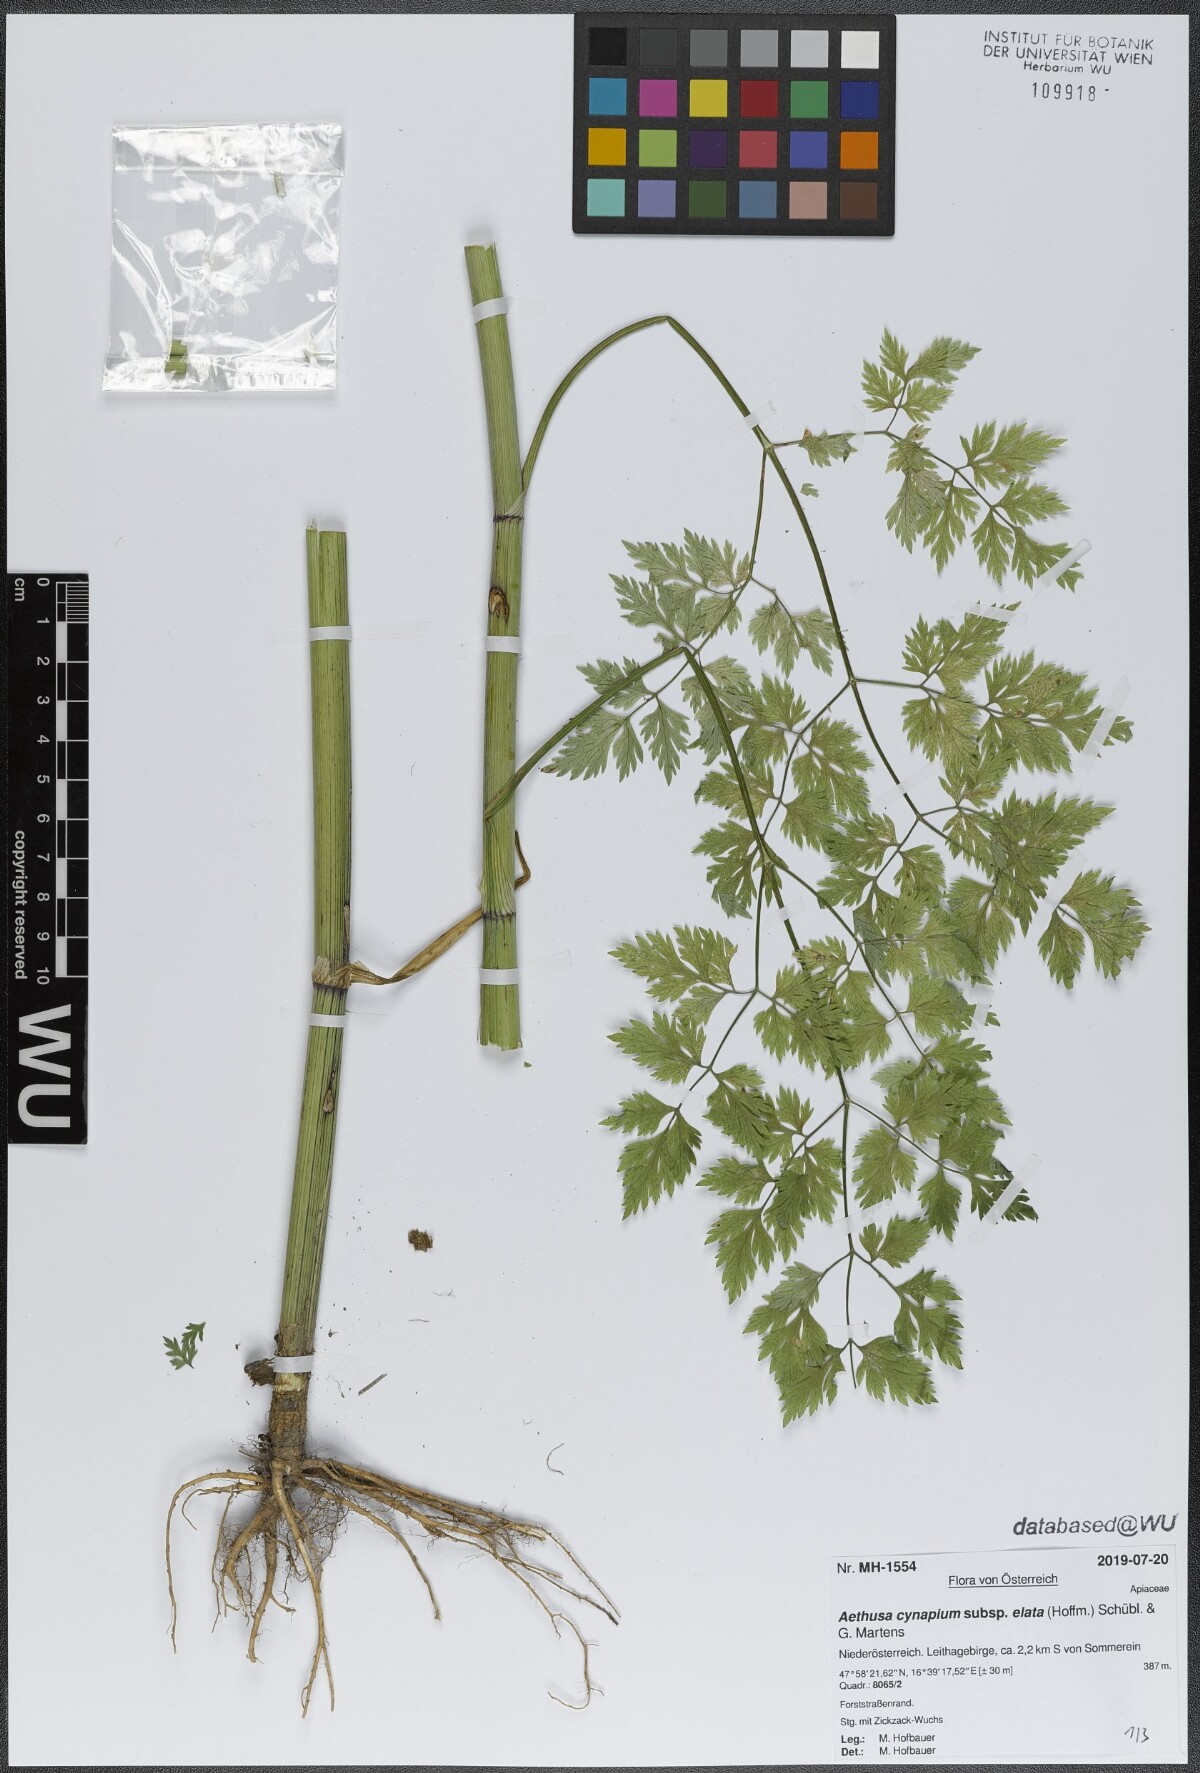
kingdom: Plantae
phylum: Tracheophyta
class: Magnoliopsida
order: Apiales
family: Apiaceae
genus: Aethusa
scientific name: Aethusa cynapium
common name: Fool's parsley
